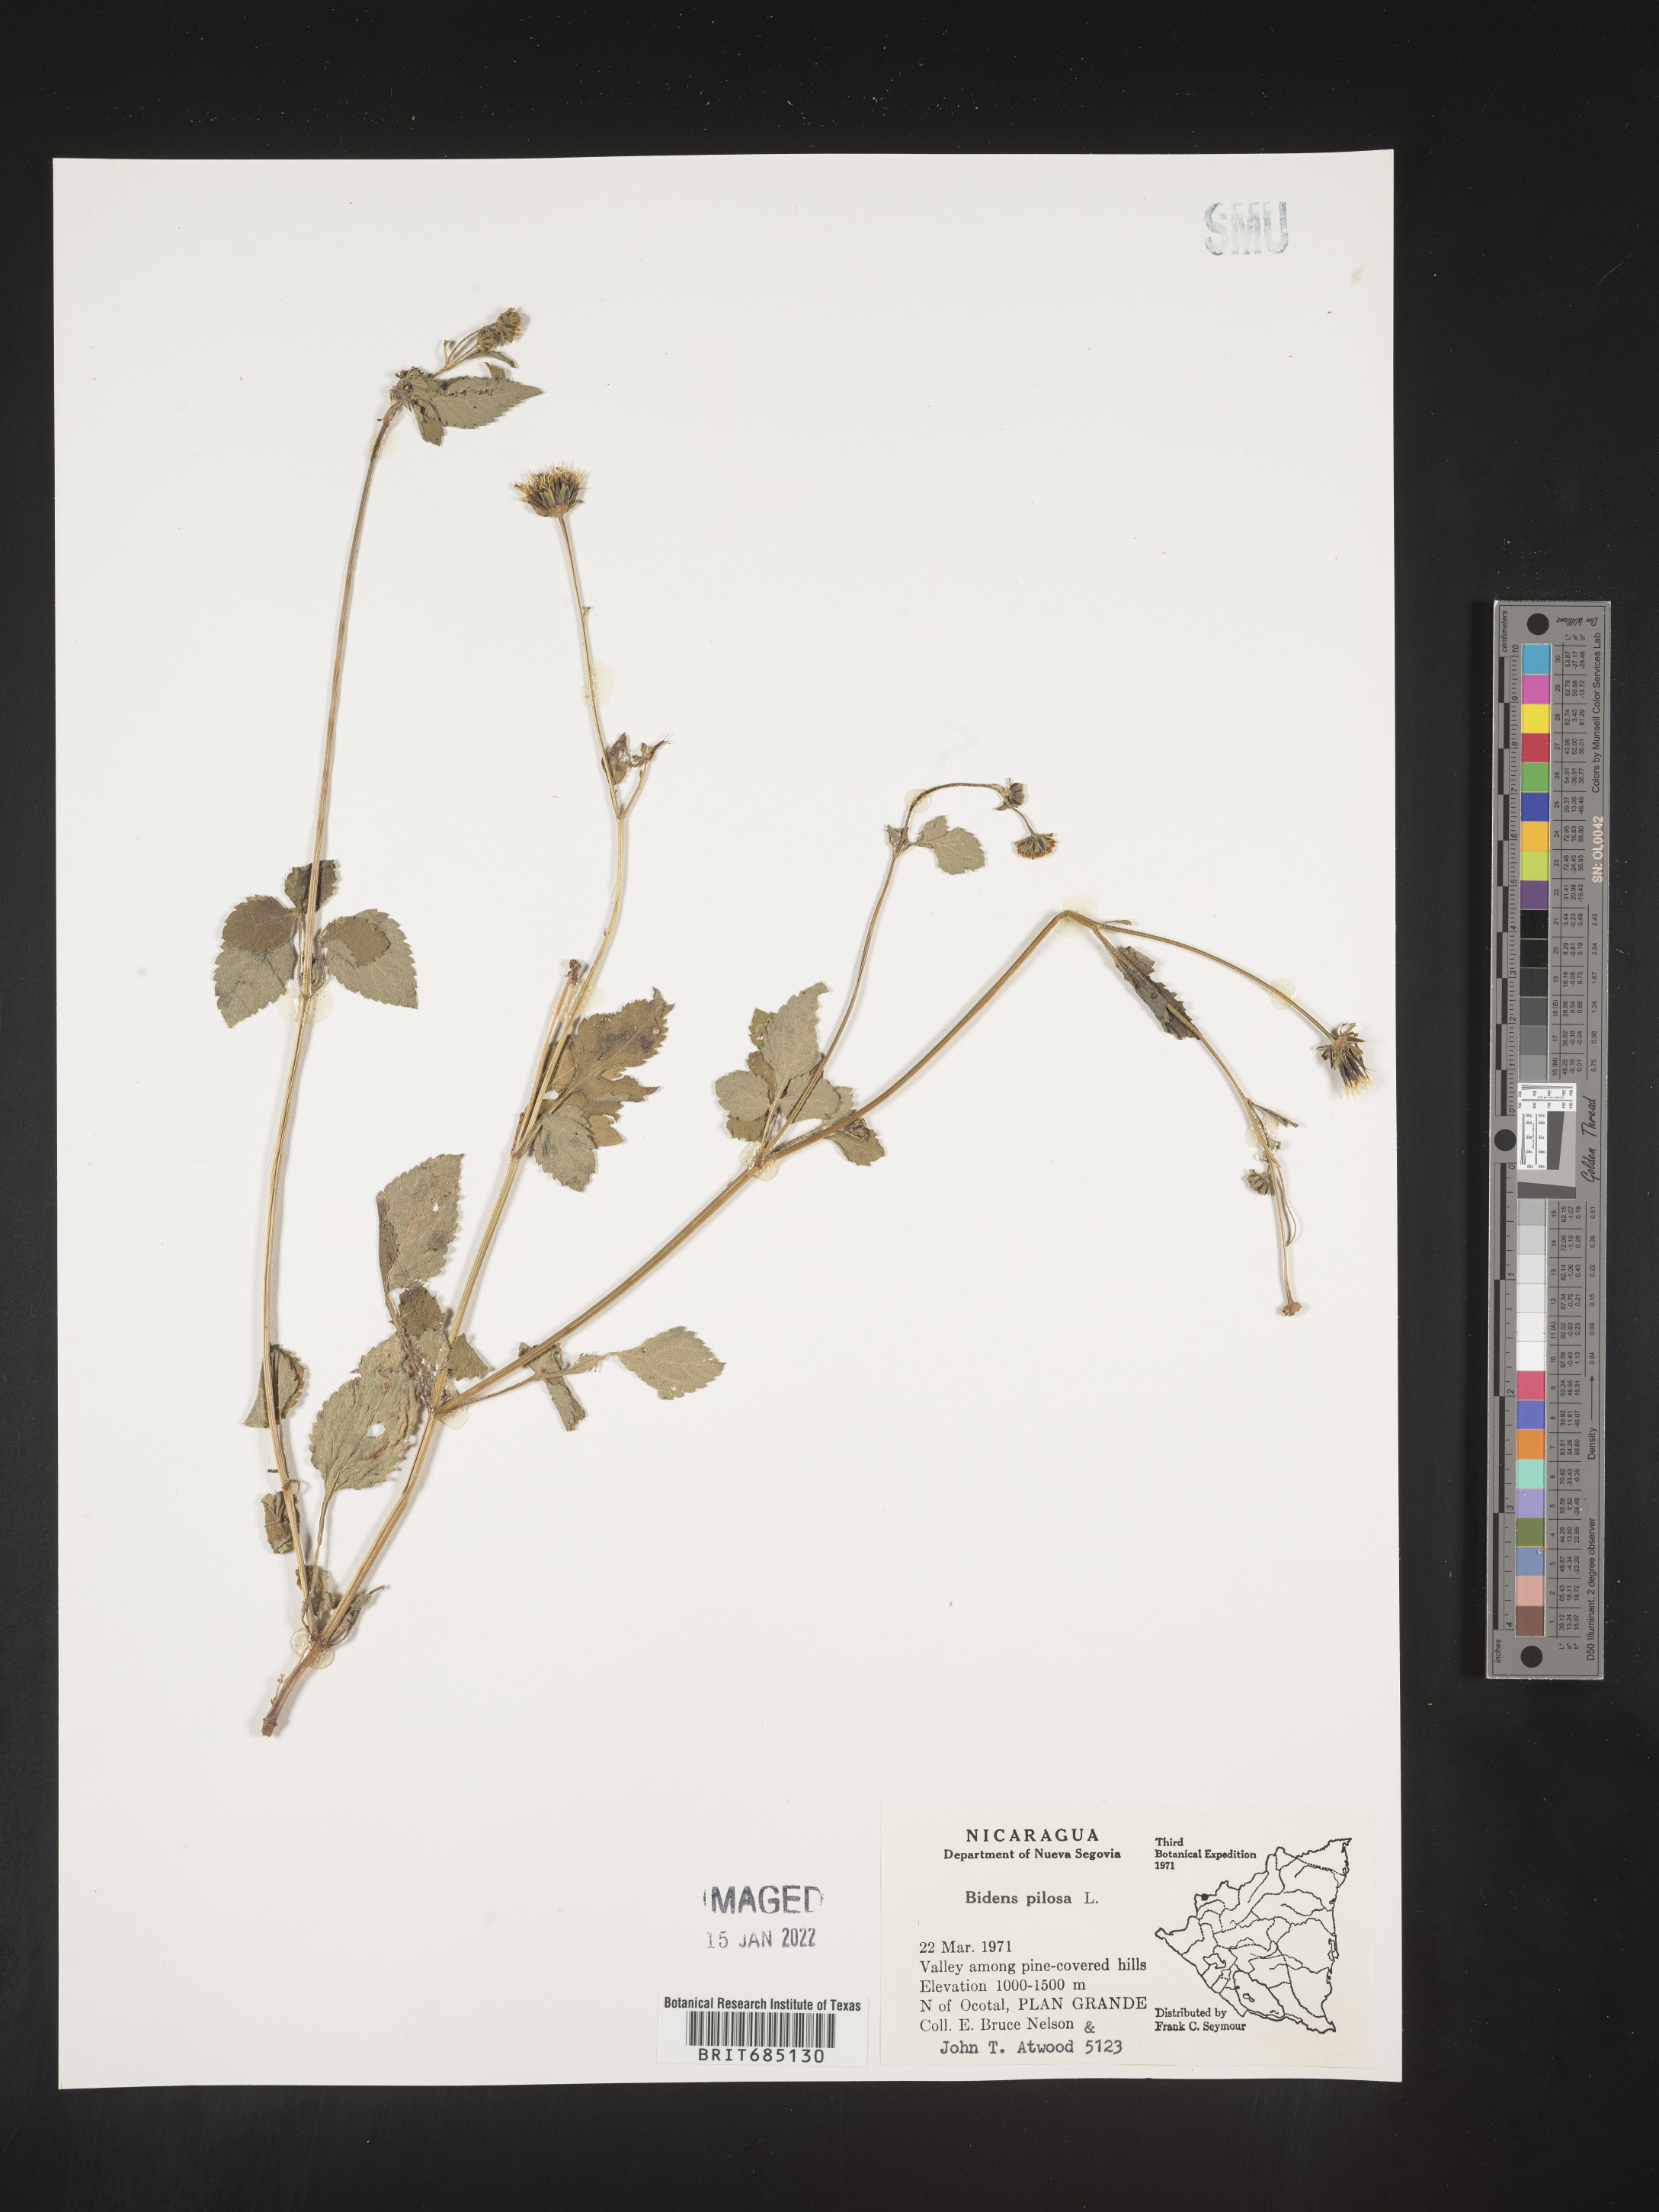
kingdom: Plantae
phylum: Tracheophyta
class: Magnoliopsida
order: Asterales
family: Asteraceae
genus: Bidens
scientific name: Bidens
